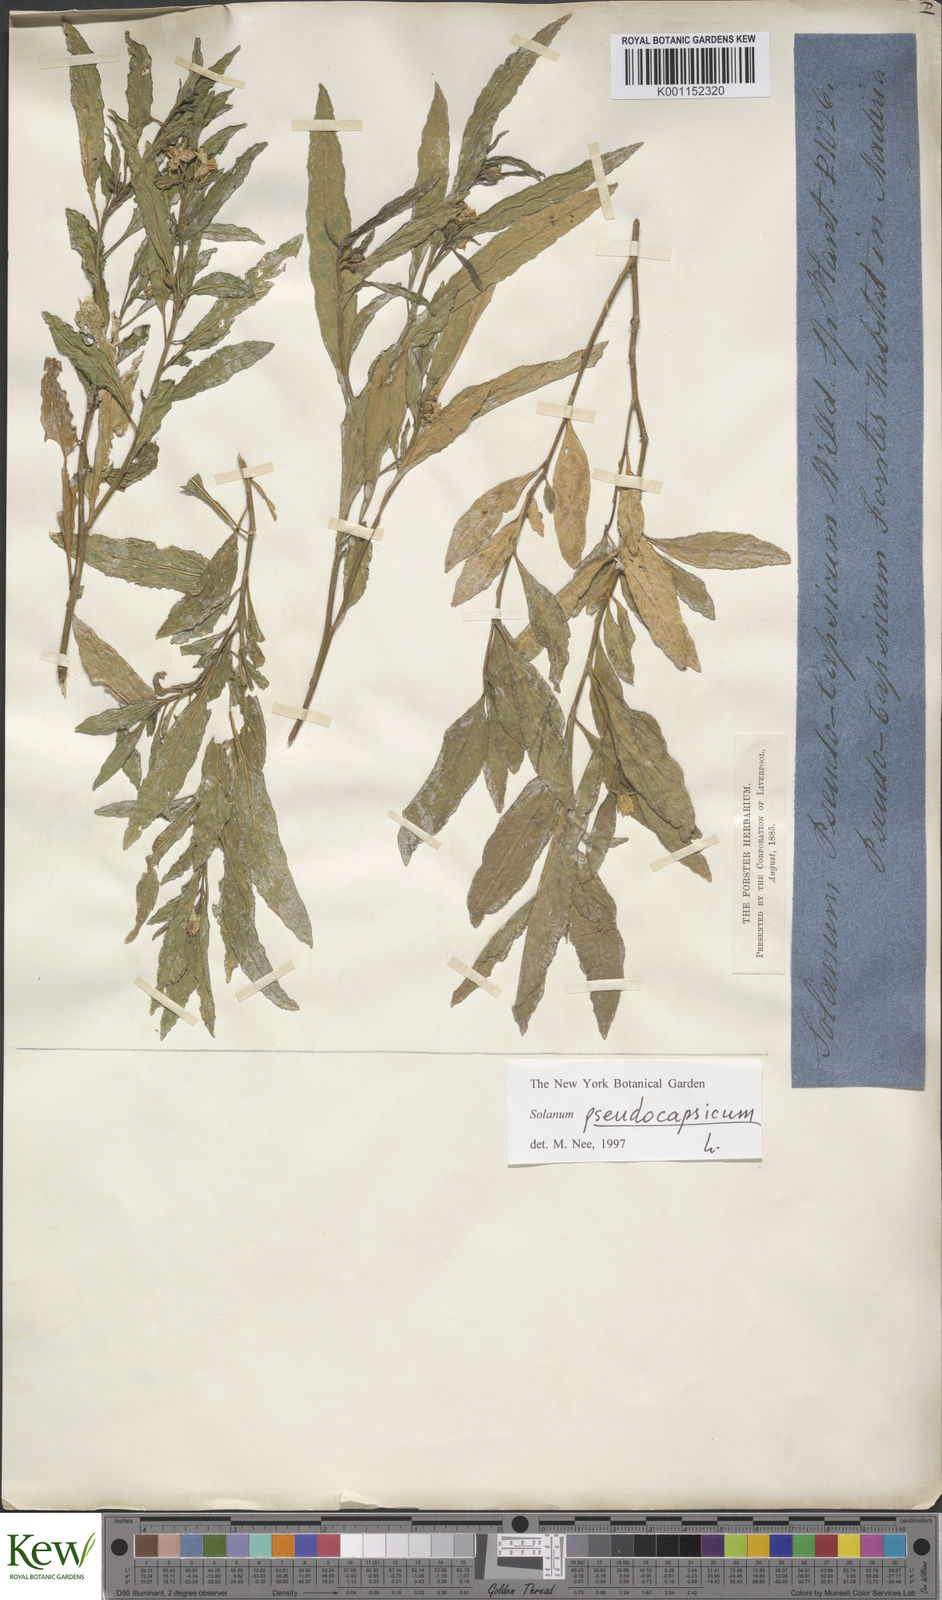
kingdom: Plantae
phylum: Tracheophyta
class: Magnoliopsida
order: Solanales
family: Solanaceae
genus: Solanum
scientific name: Solanum pseudocapsicum
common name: Jerusalem cherry
